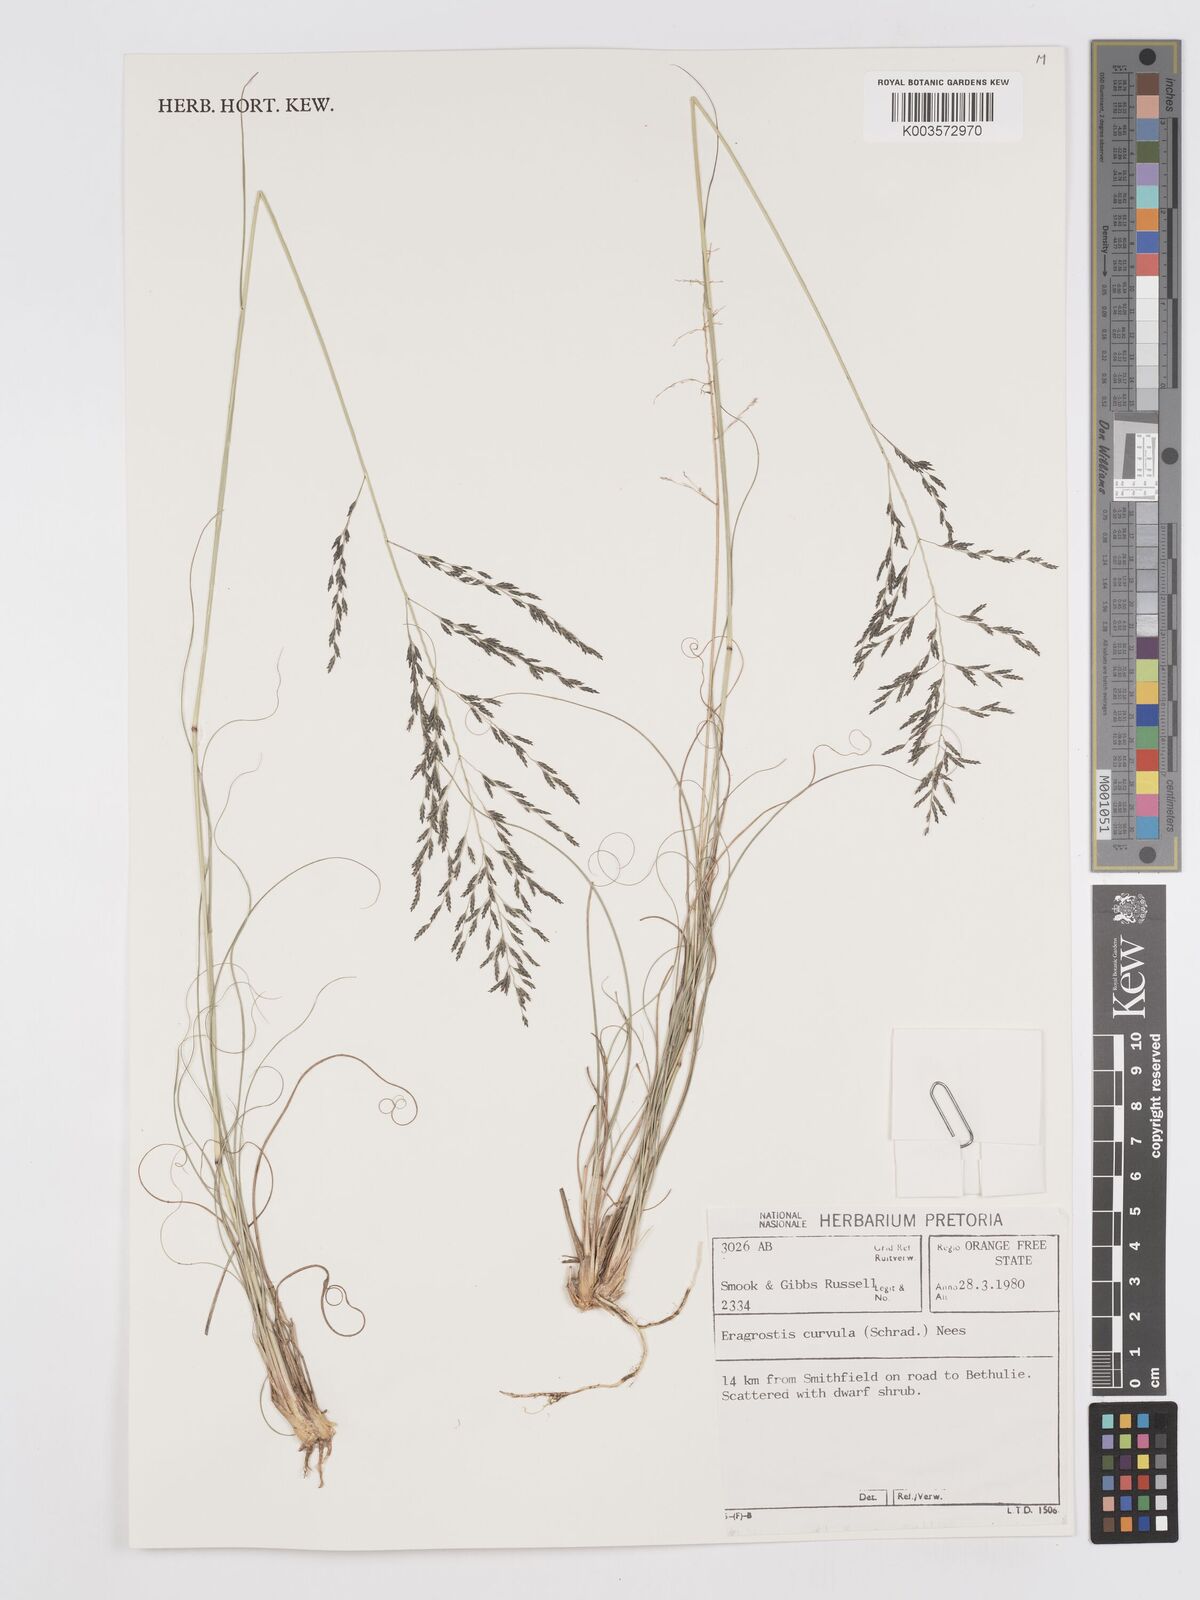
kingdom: Plantae
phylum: Tracheophyta
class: Liliopsida
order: Poales
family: Poaceae
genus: Eragrostis
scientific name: Eragrostis curvula
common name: African love-grass
